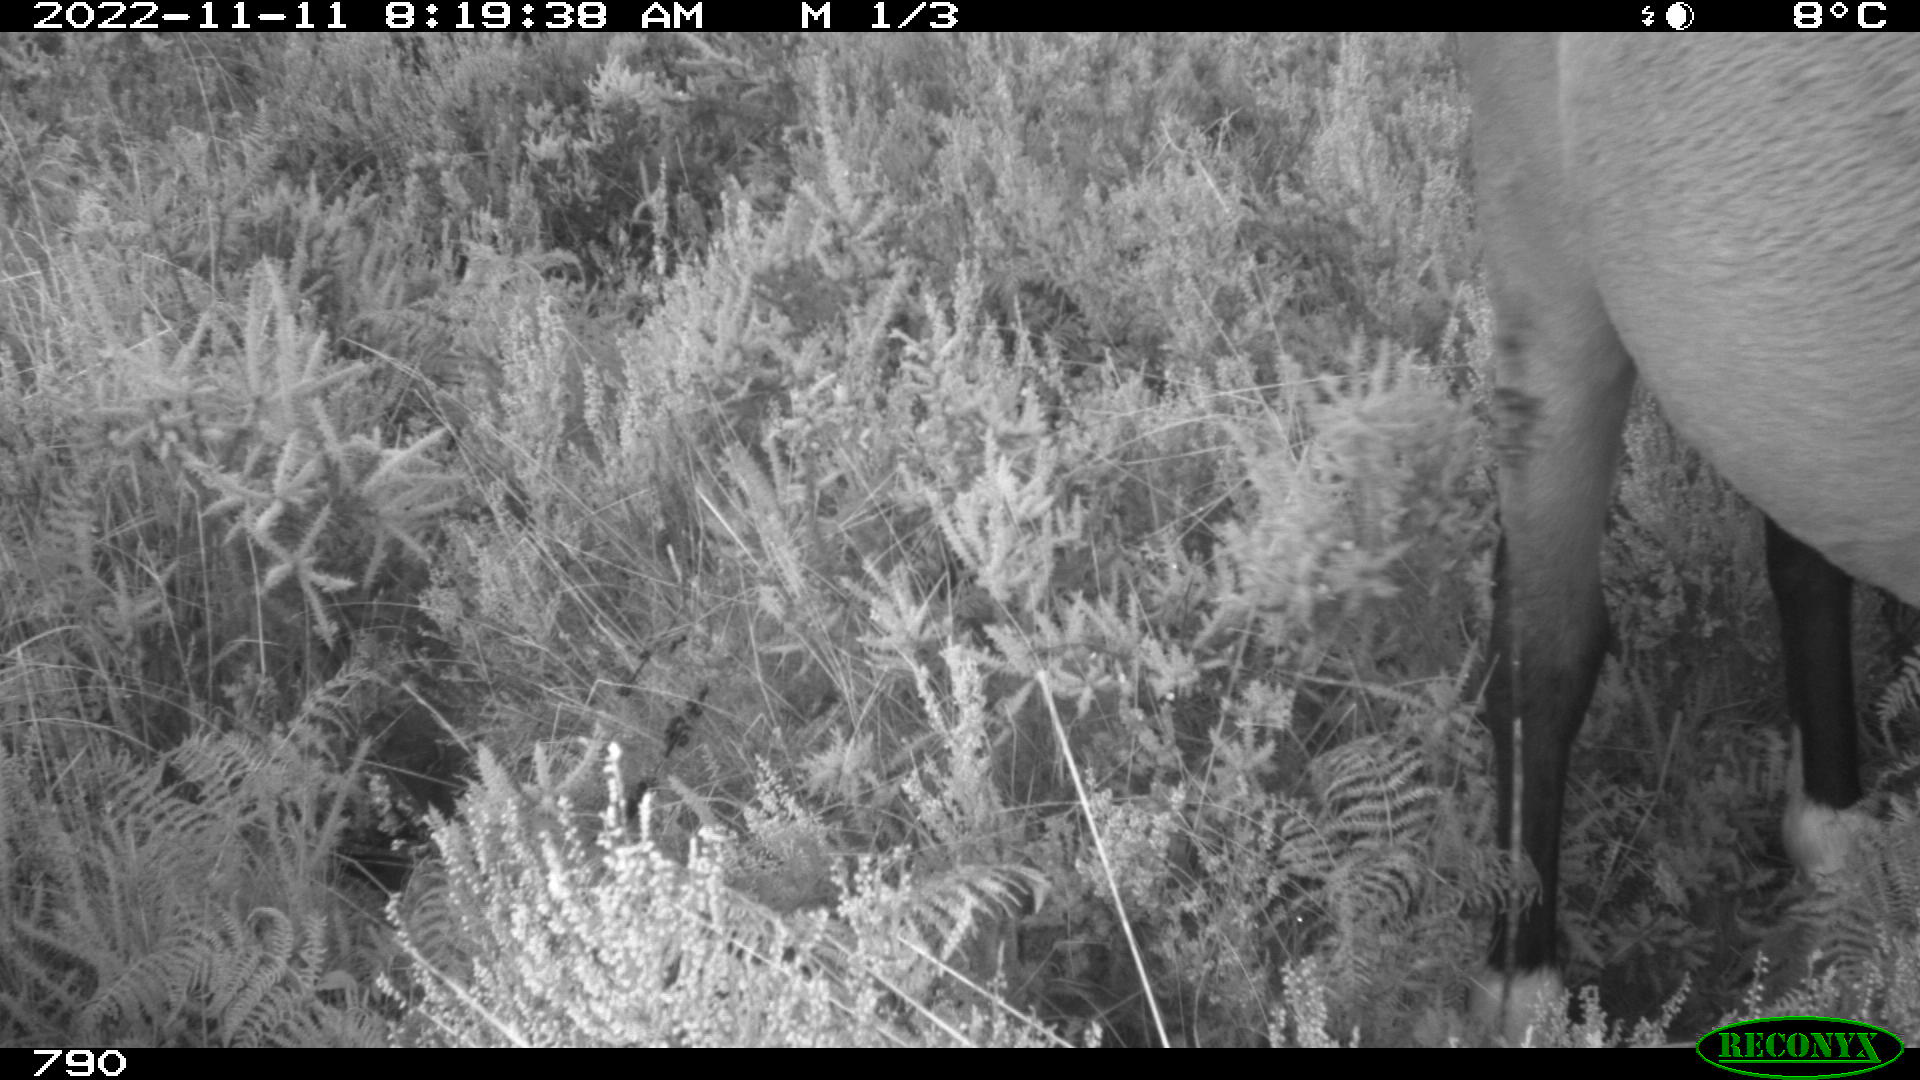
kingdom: Animalia
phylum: Chordata
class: Mammalia
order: Artiodactyla
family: Bovidae
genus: Bos
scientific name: Bos taurus
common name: Domesticated cattle
